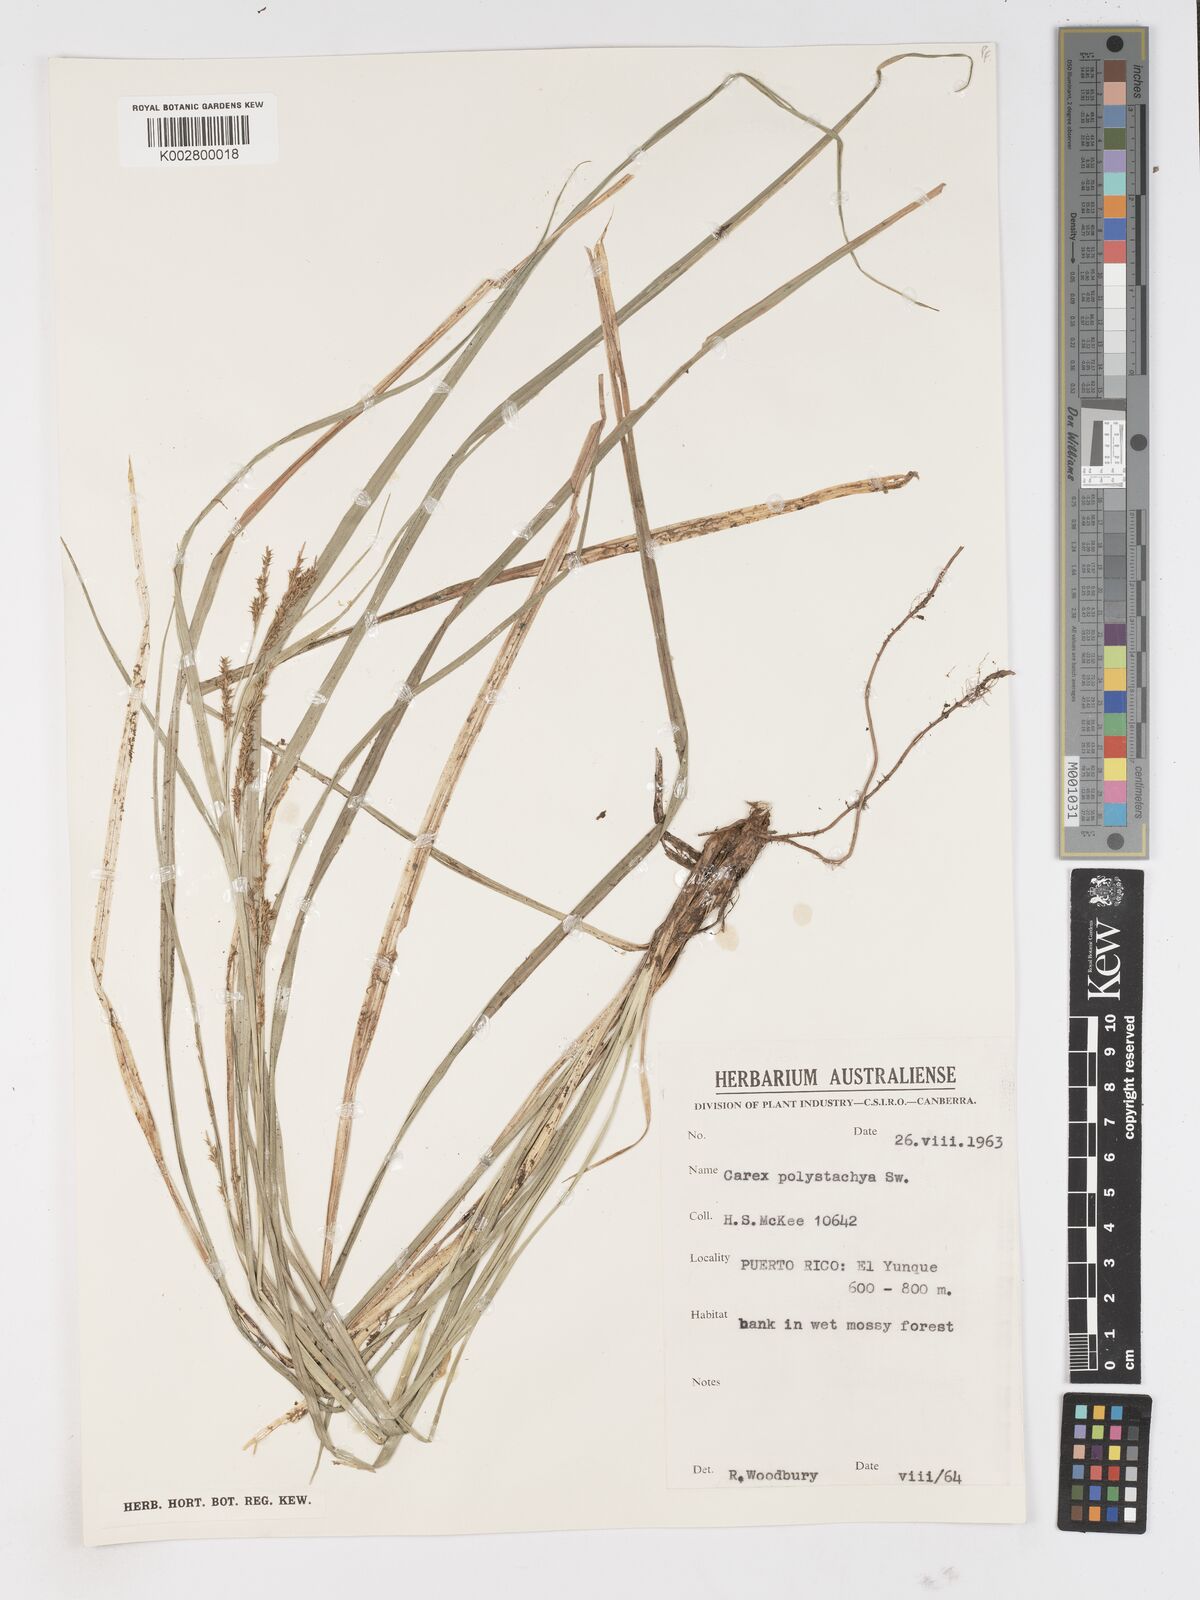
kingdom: Plantae
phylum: Tracheophyta
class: Liliopsida
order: Poales
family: Cyperaceae
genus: Carex
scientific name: Carex polystachya
